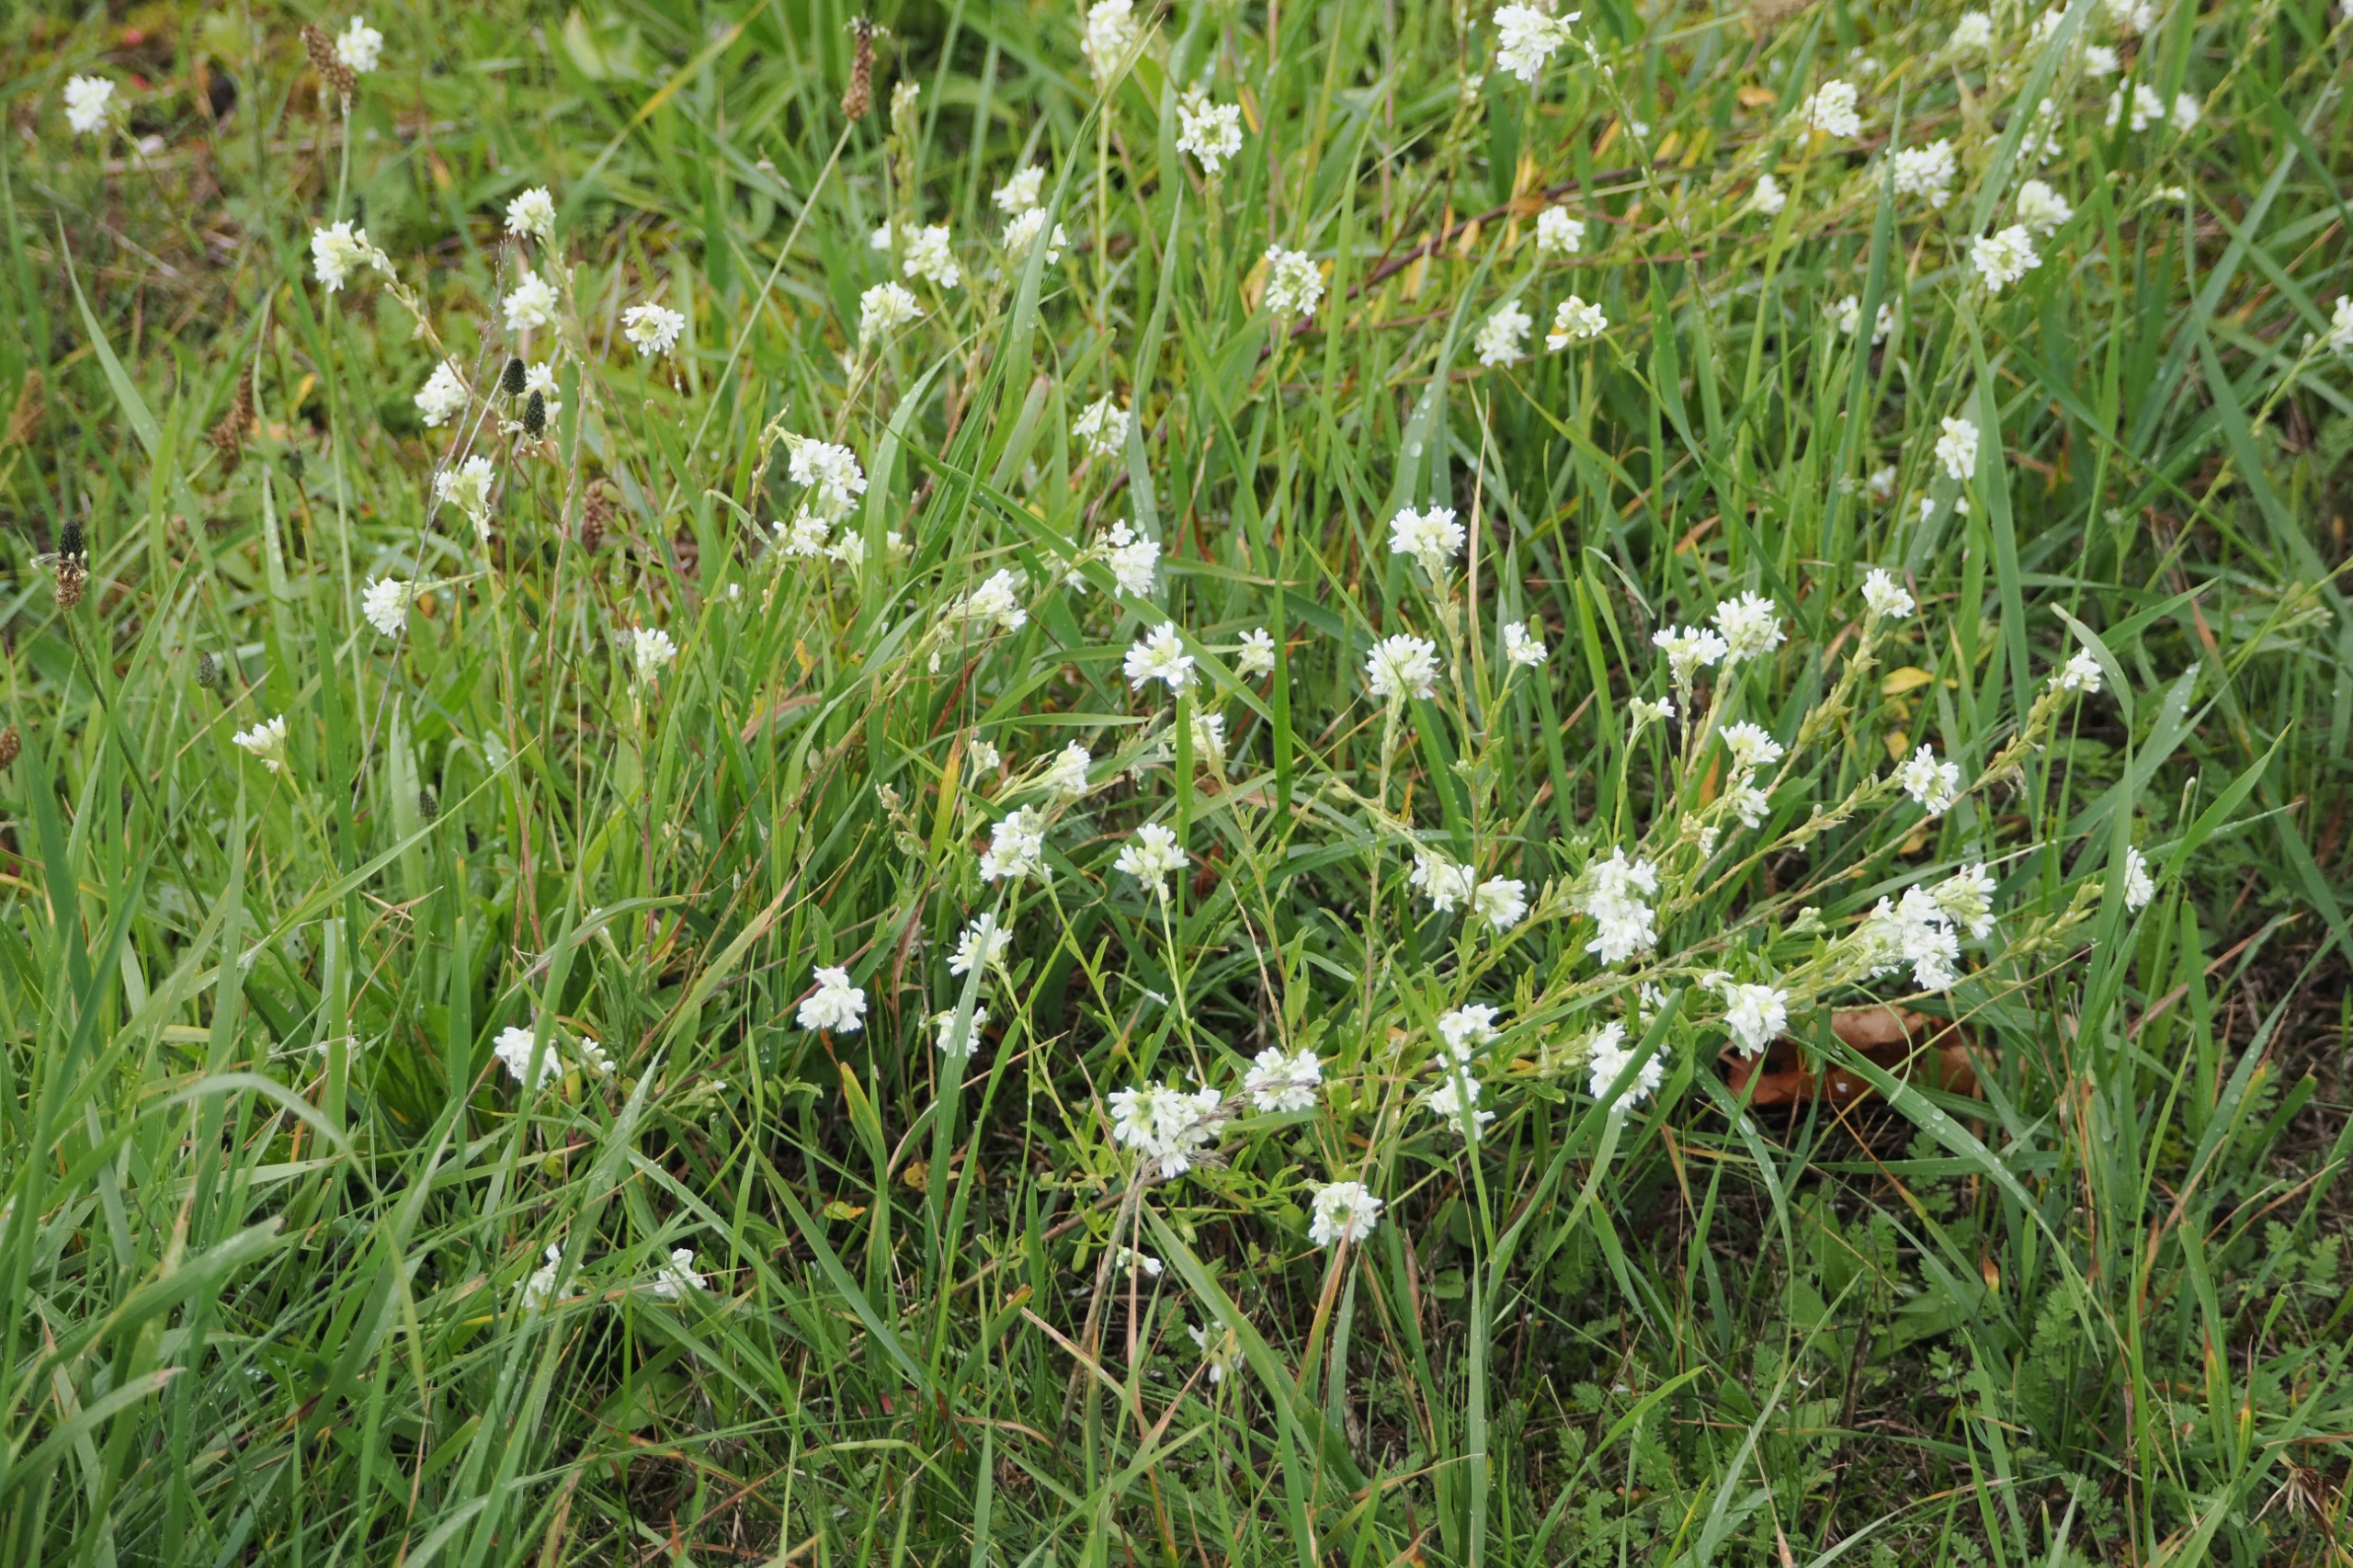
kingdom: Plantae
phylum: Tracheophyta
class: Magnoliopsida
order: Brassicales
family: Brassicaceae
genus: Berteroa
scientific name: Berteroa incana
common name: Kløvplade
